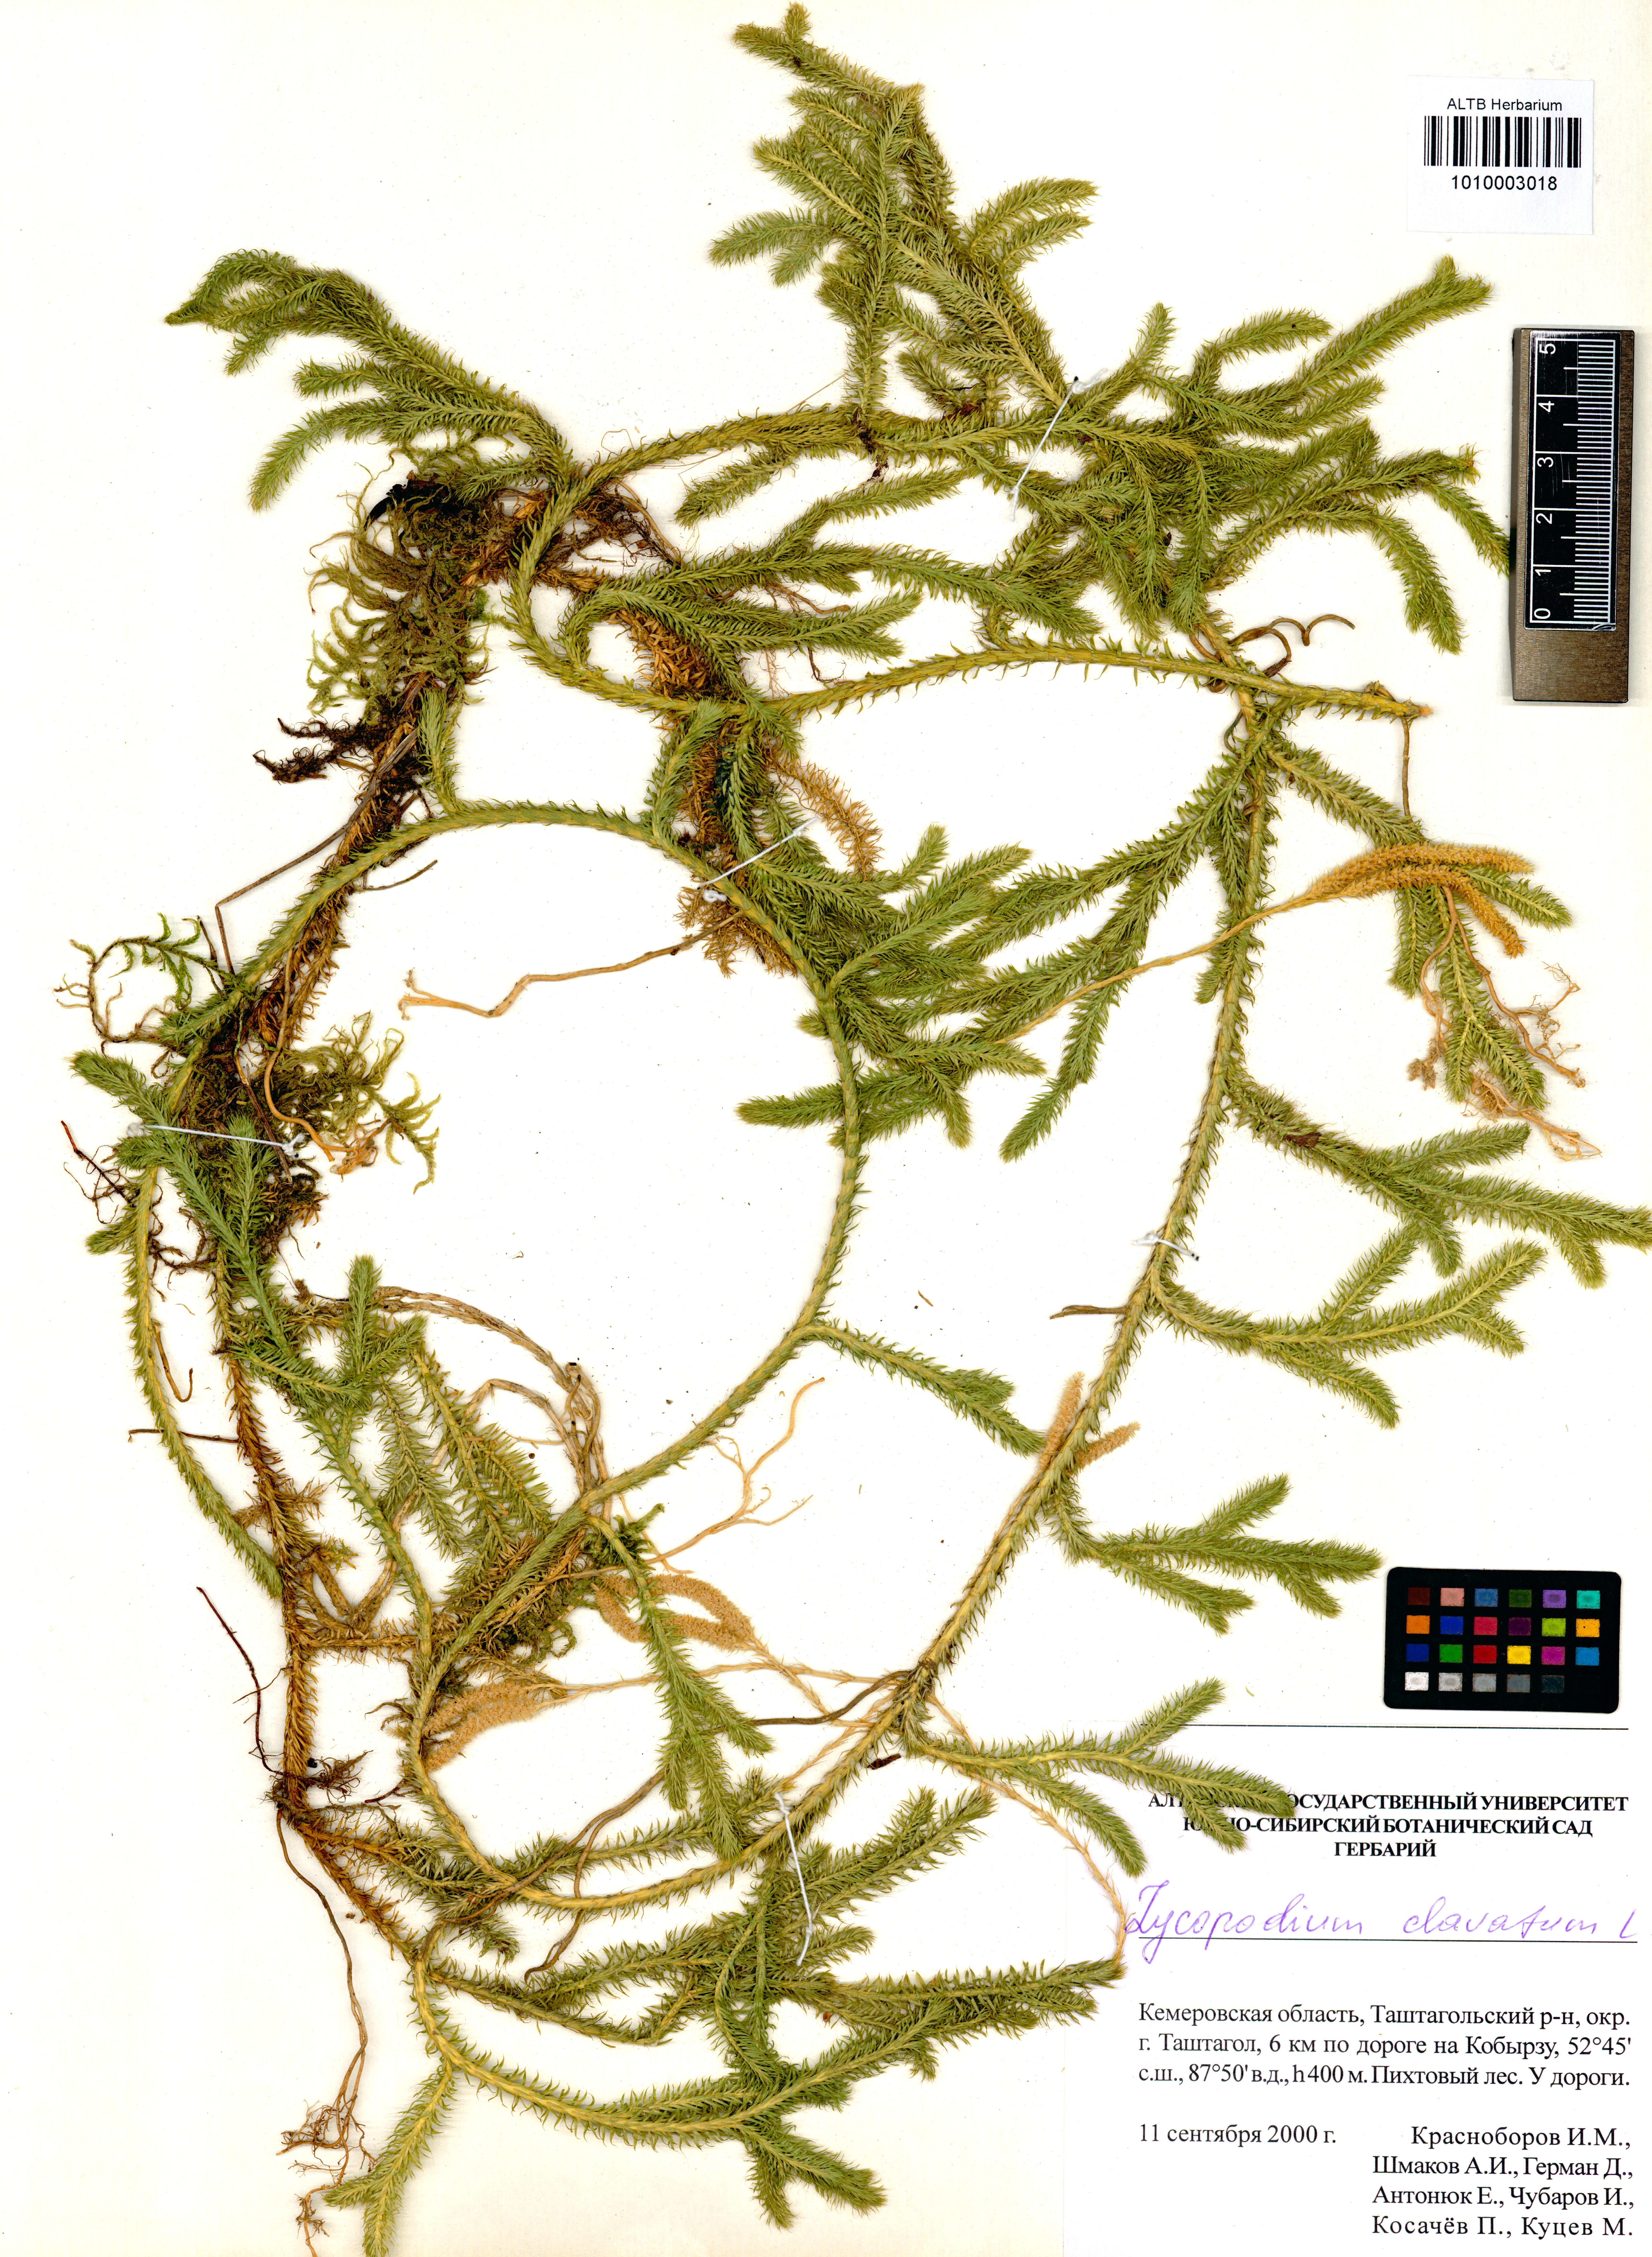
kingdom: Plantae
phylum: Tracheophyta
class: Lycopodiopsida
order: Lycopodiales
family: Lycopodiaceae
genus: Lycopodium
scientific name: Lycopodium clavatum
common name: Stag's-horn clubmoss
